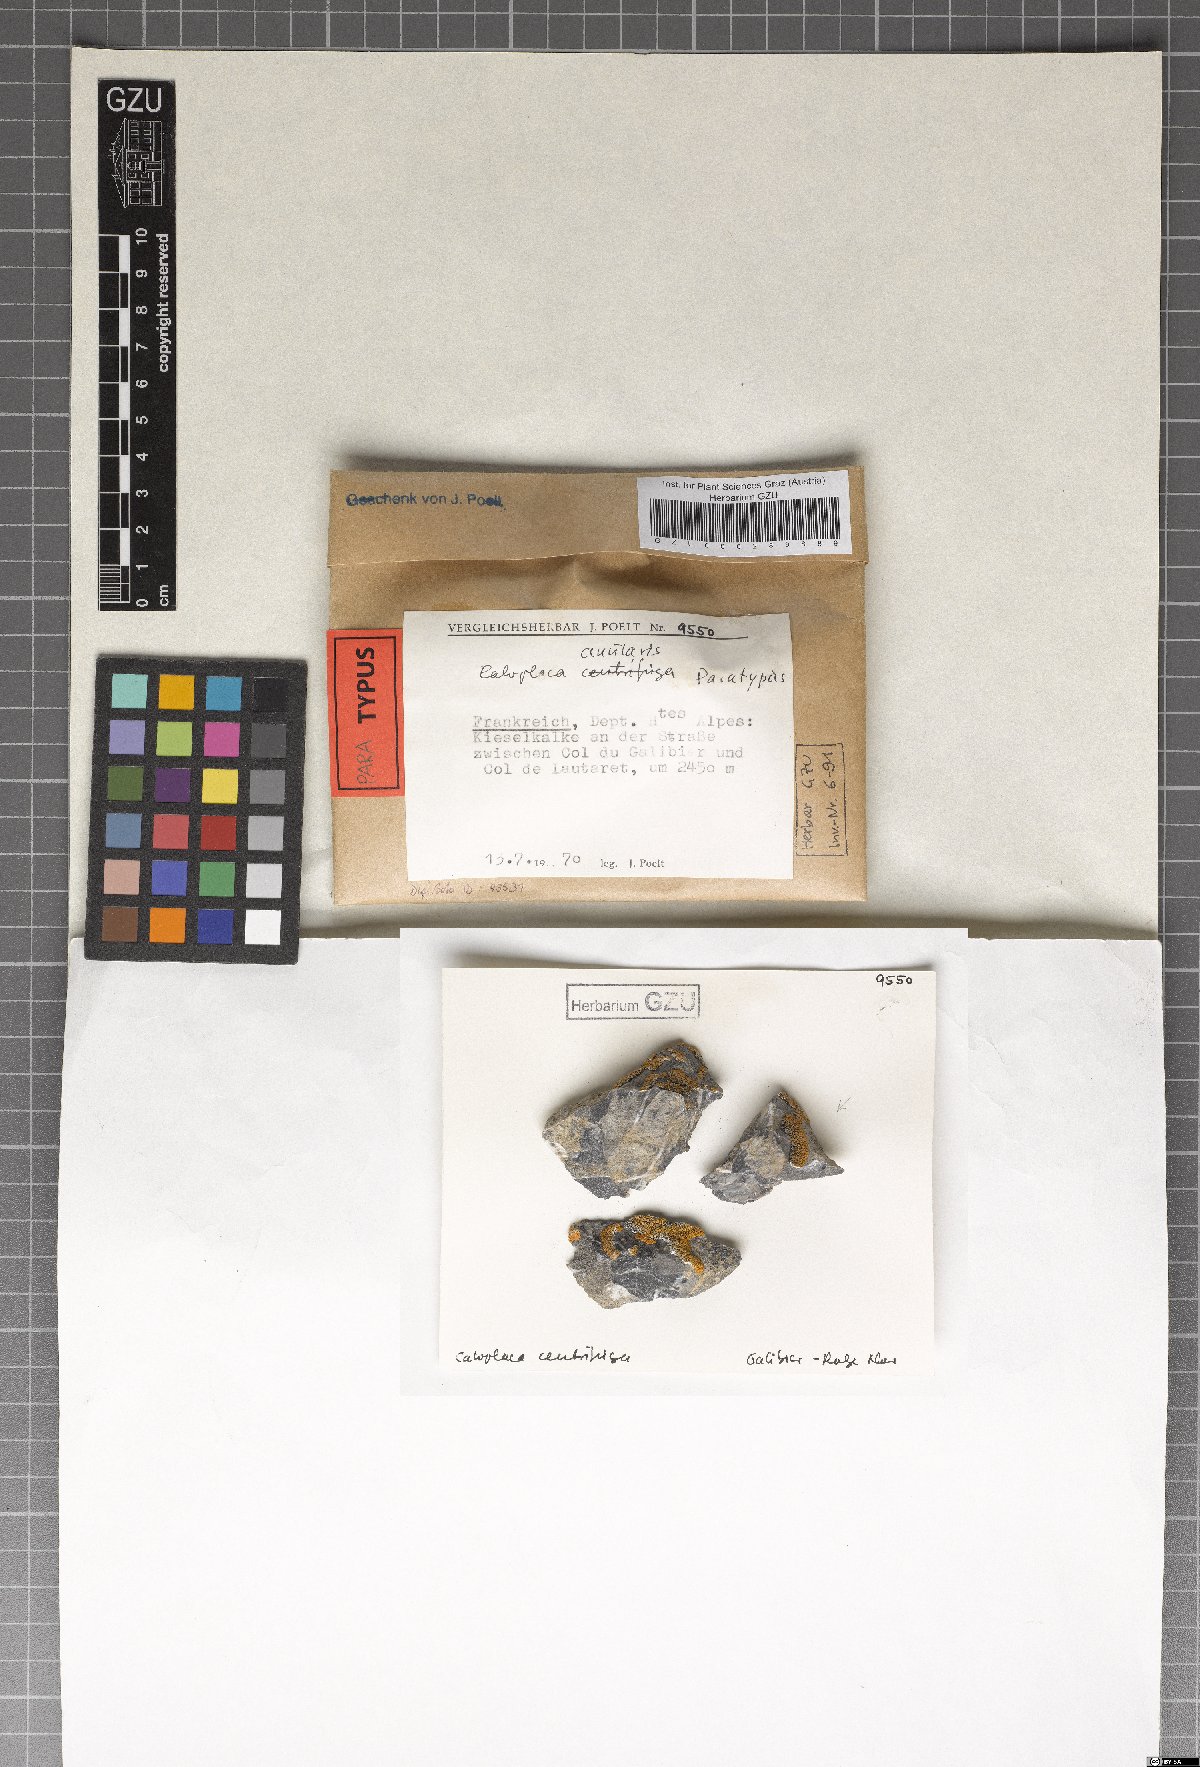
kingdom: Fungi
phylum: Ascomycota
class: Lecanoromycetes
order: Teloschistales
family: Teloschistaceae
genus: Caloplaca
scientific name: Caloplaca anularis
